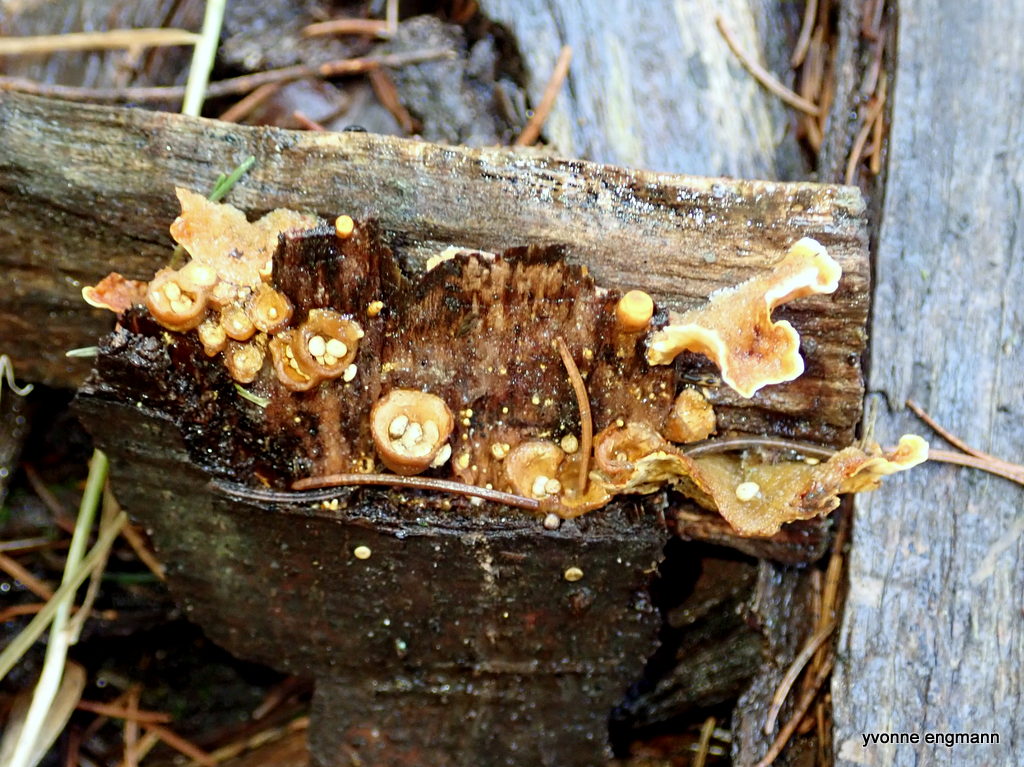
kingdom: Fungi
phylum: Basidiomycota
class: Agaricomycetes
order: Agaricales
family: Nidulariaceae
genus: Crucibulum
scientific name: Crucibulum crucibuliforme
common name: krukkesvamp
